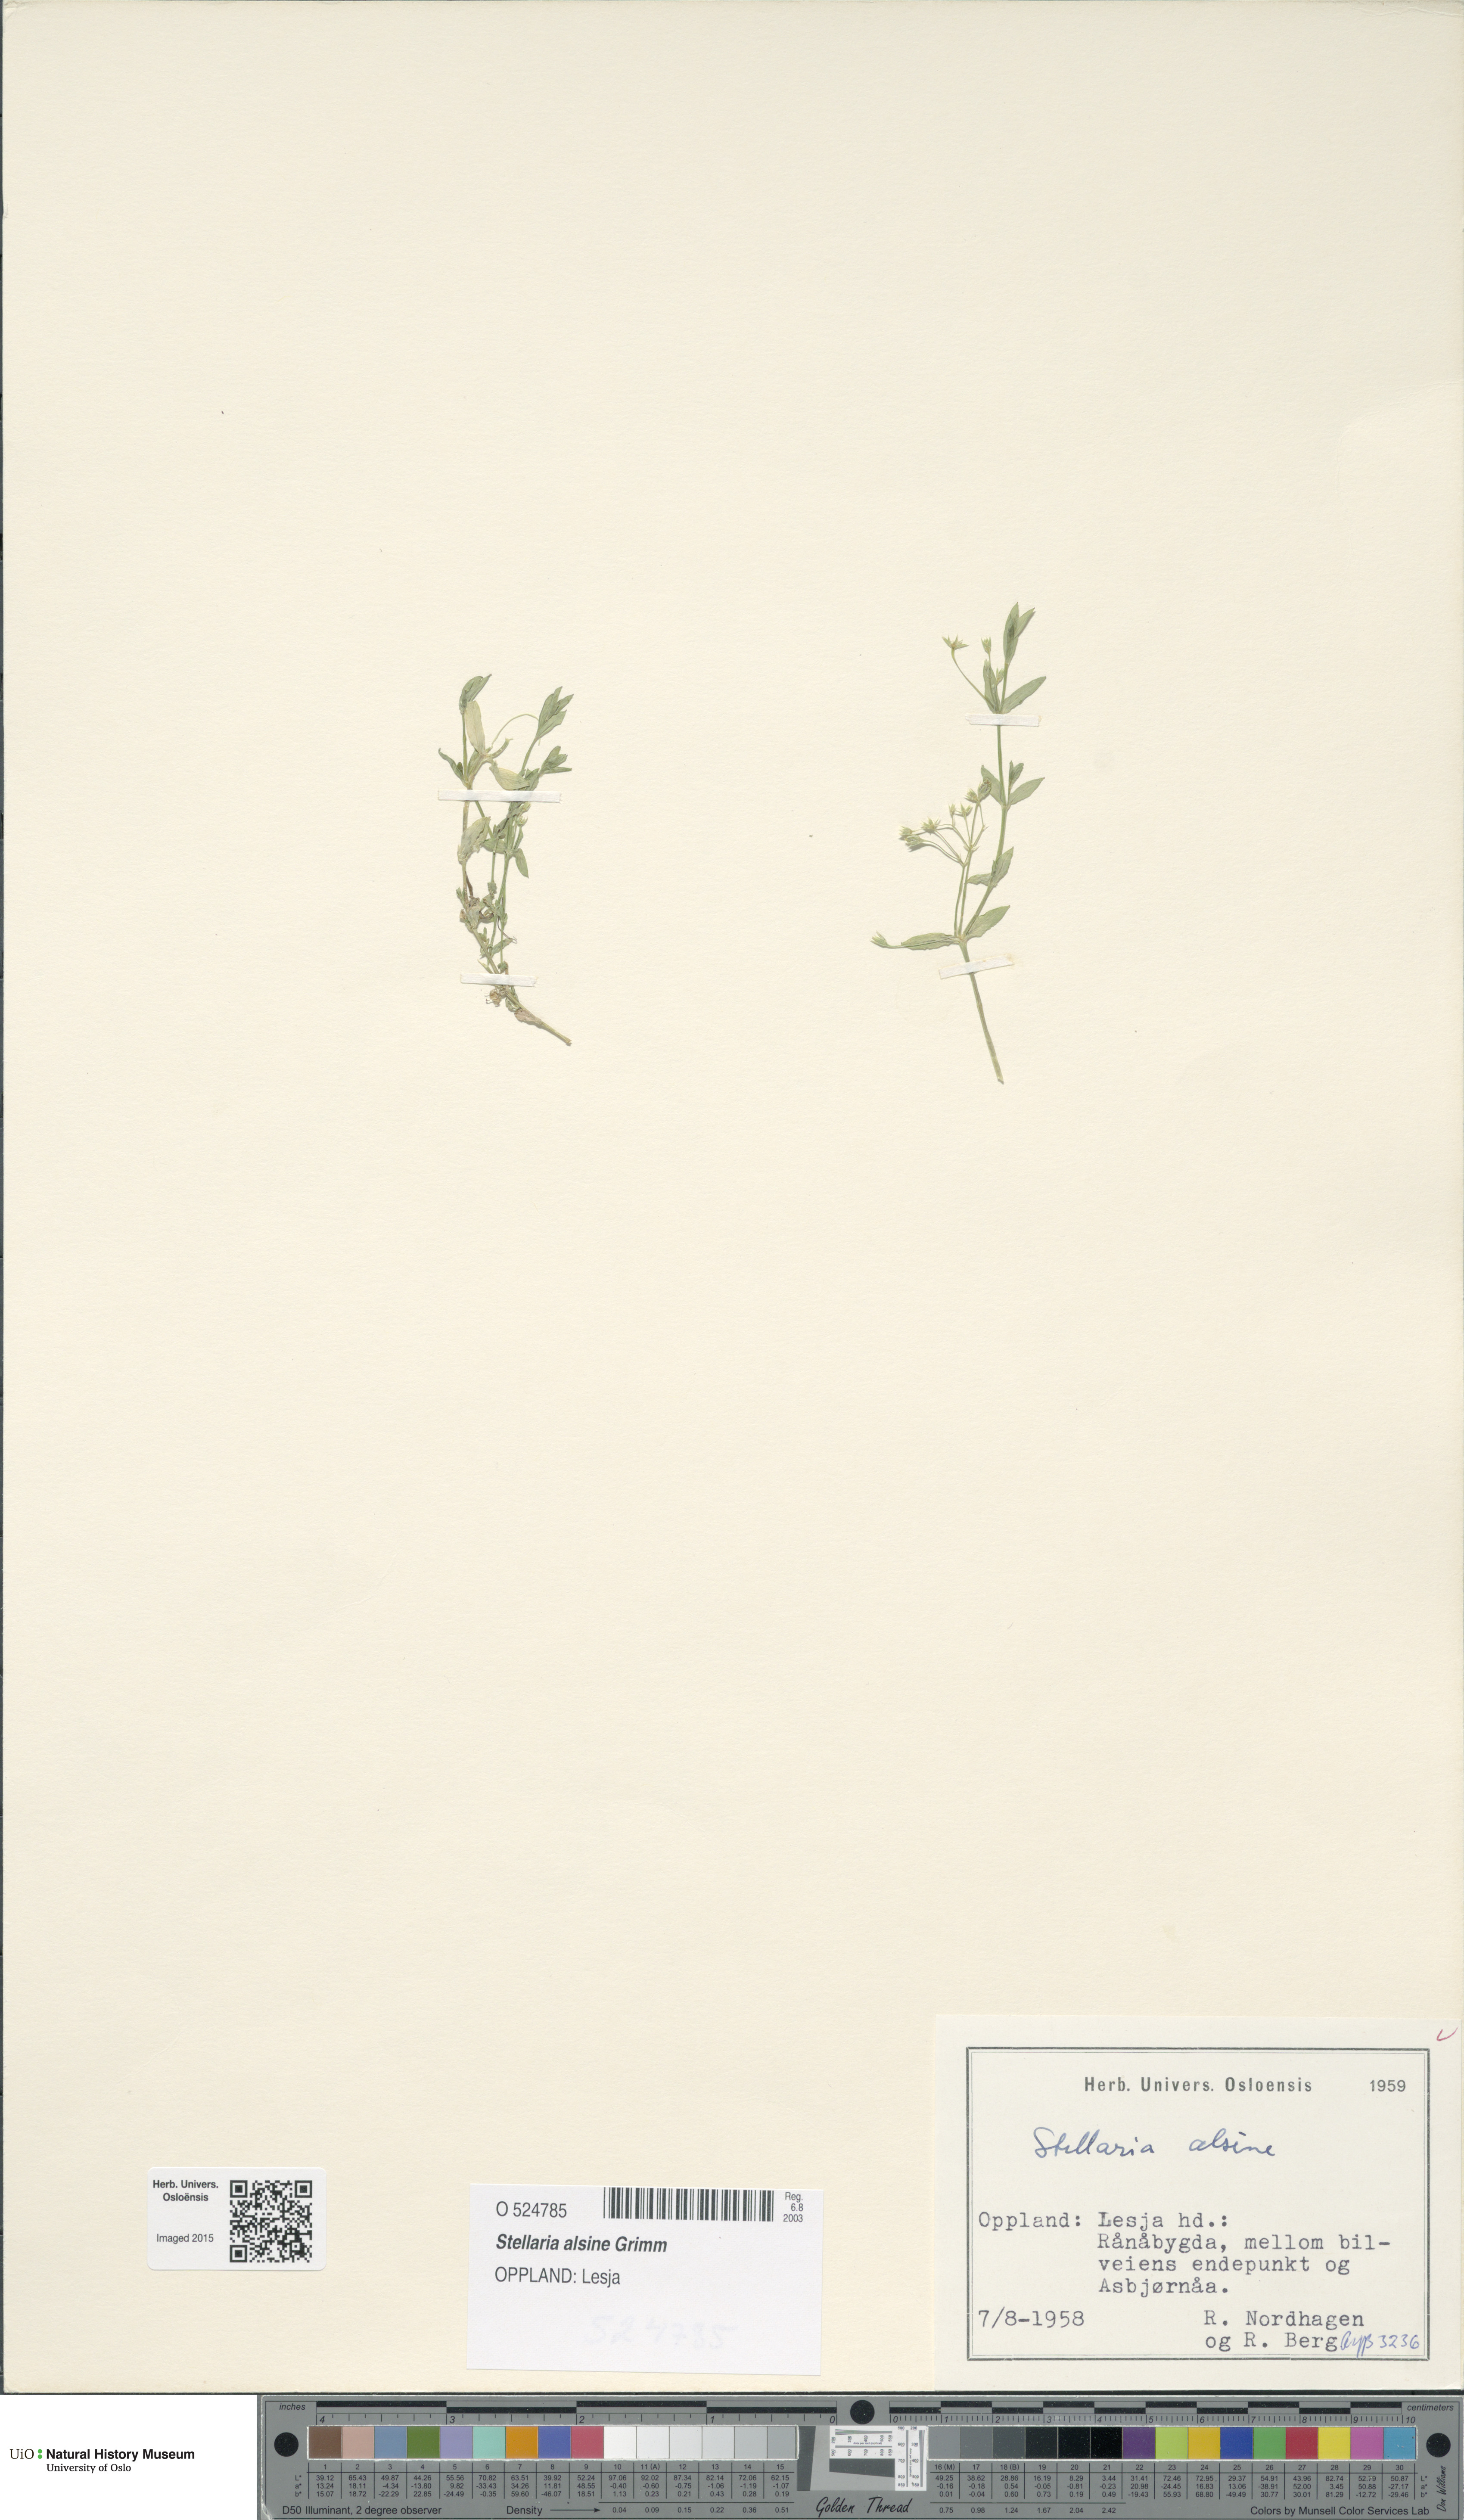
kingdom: Plantae
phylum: Tracheophyta
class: Magnoliopsida
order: Caryophyllales
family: Caryophyllaceae
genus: Stellaria
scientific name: Stellaria alsine
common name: Bog stitchwort
